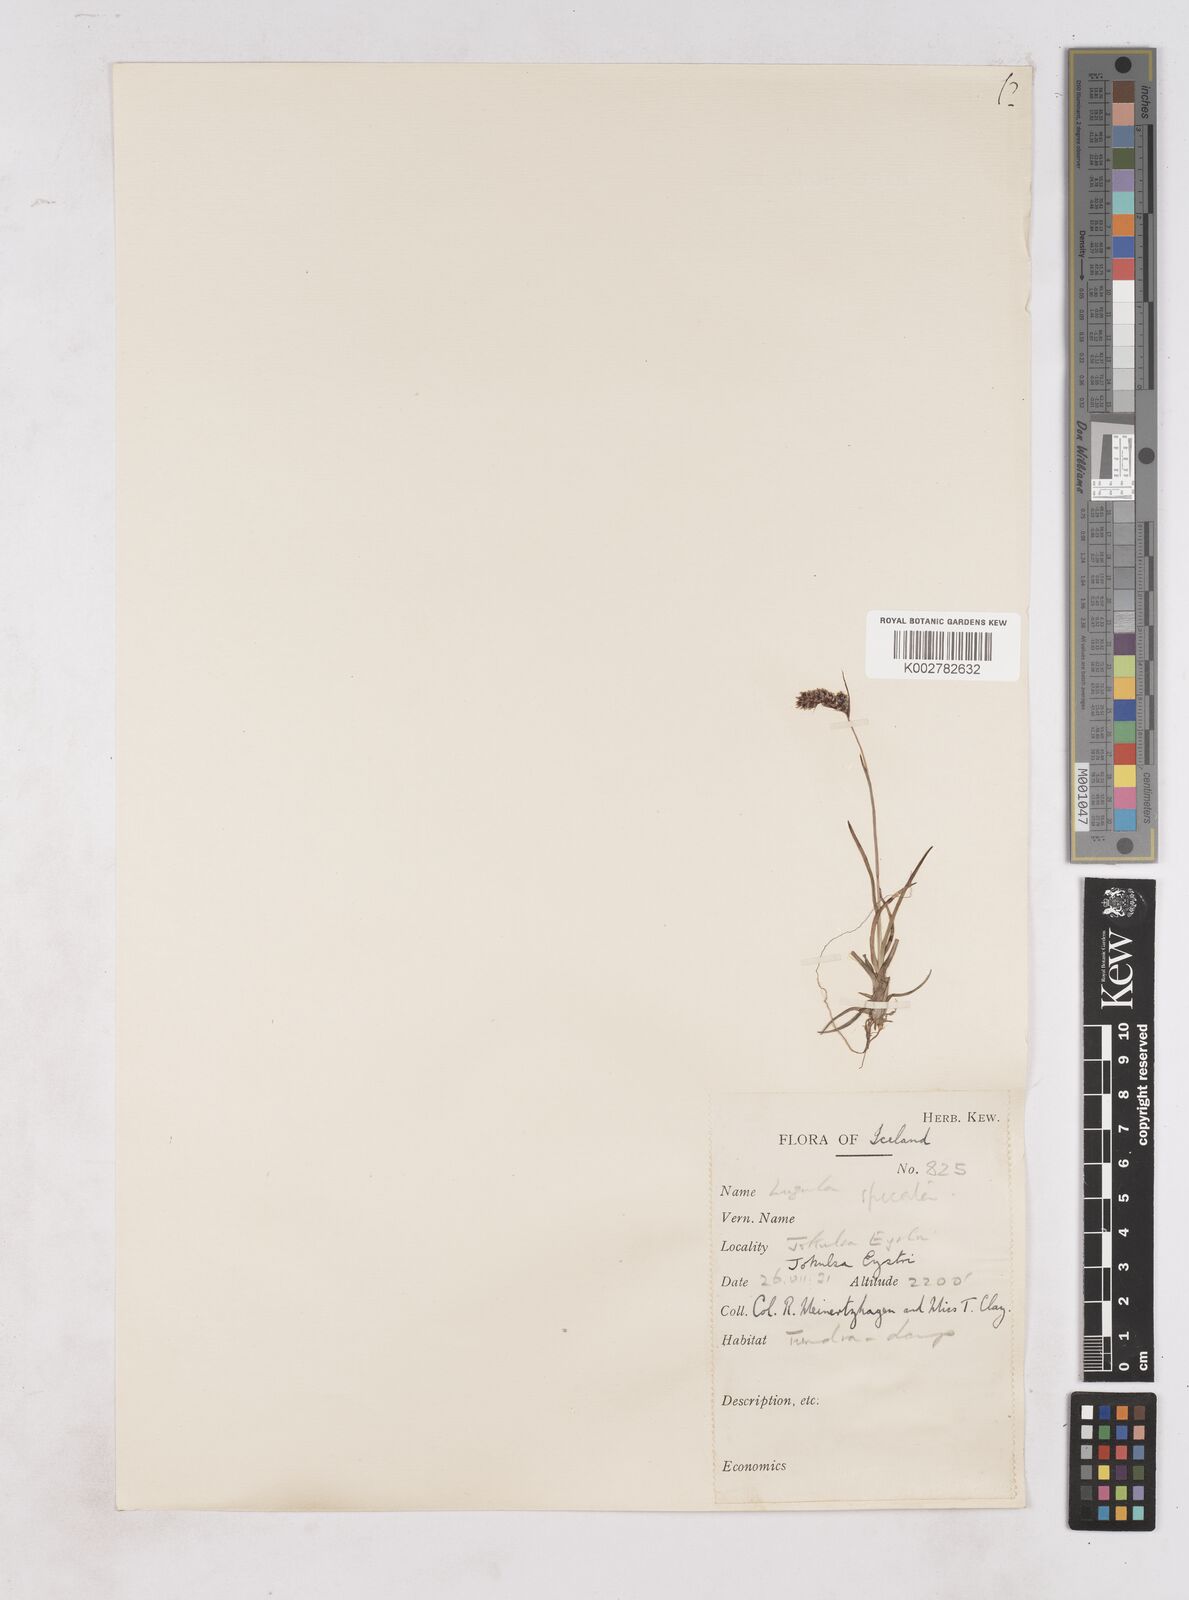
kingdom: Plantae
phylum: Tracheophyta
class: Liliopsida
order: Poales
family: Juncaceae
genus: Luzula
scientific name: Luzula spicata
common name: Spiked wood-rush
